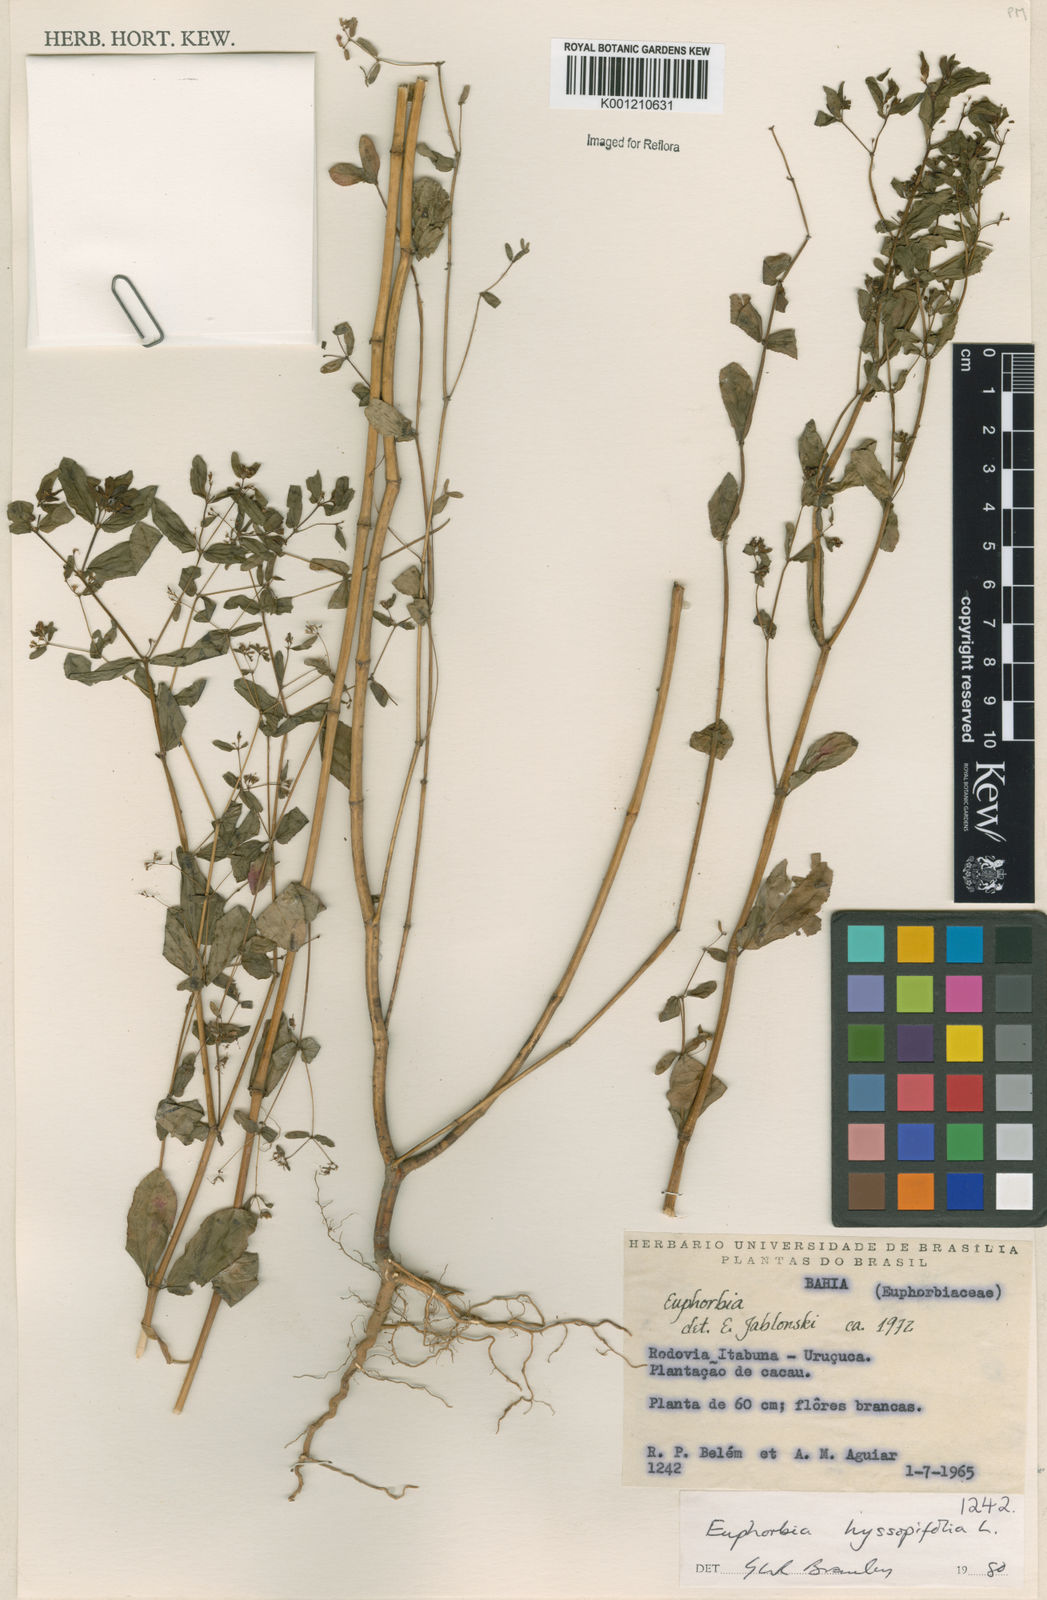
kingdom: Plantae
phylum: Tracheophyta
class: Magnoliopsida
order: Malpighiales
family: Euphorbiaceae
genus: Euphorbia
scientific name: Euphorbia hyssopifolia
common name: Hyssopleaf sandmat
